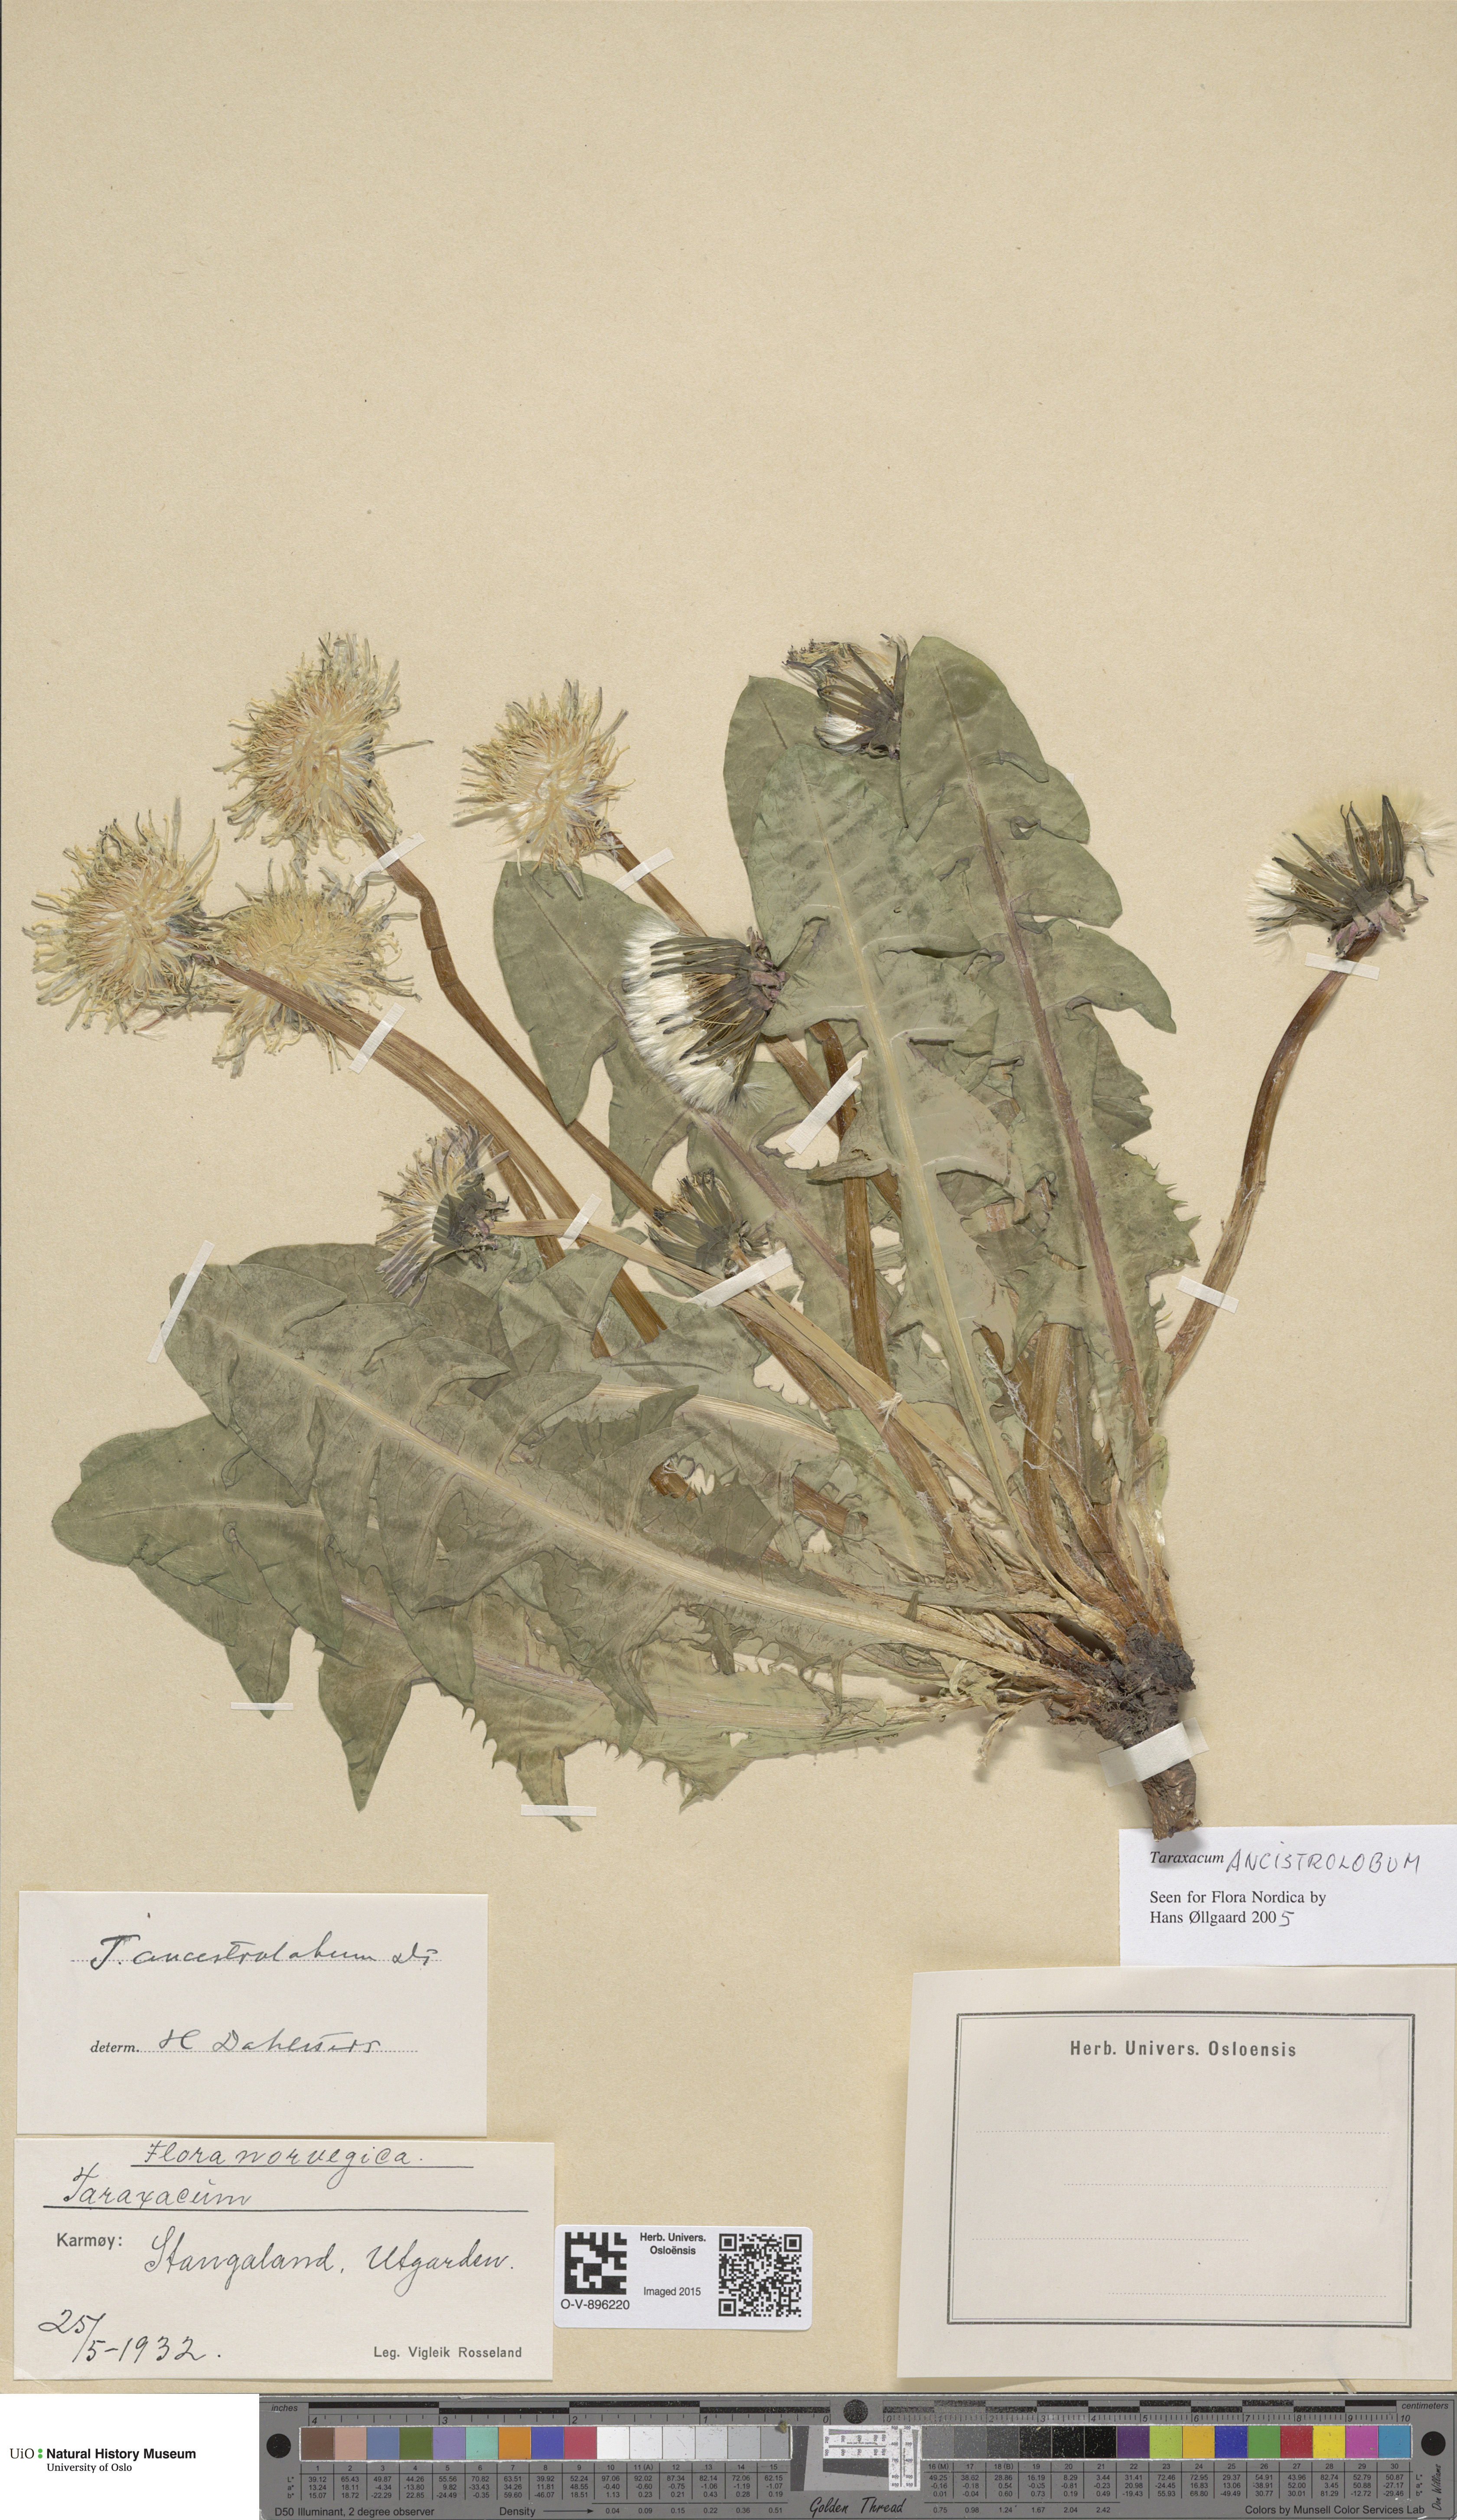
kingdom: Plantae
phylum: Tracheophyta
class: Magnoliopsida
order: Asterales
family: Asteraceae
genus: Taraxacum
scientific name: Taraxacum ancistrolobum
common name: Few-lobed dandelion
